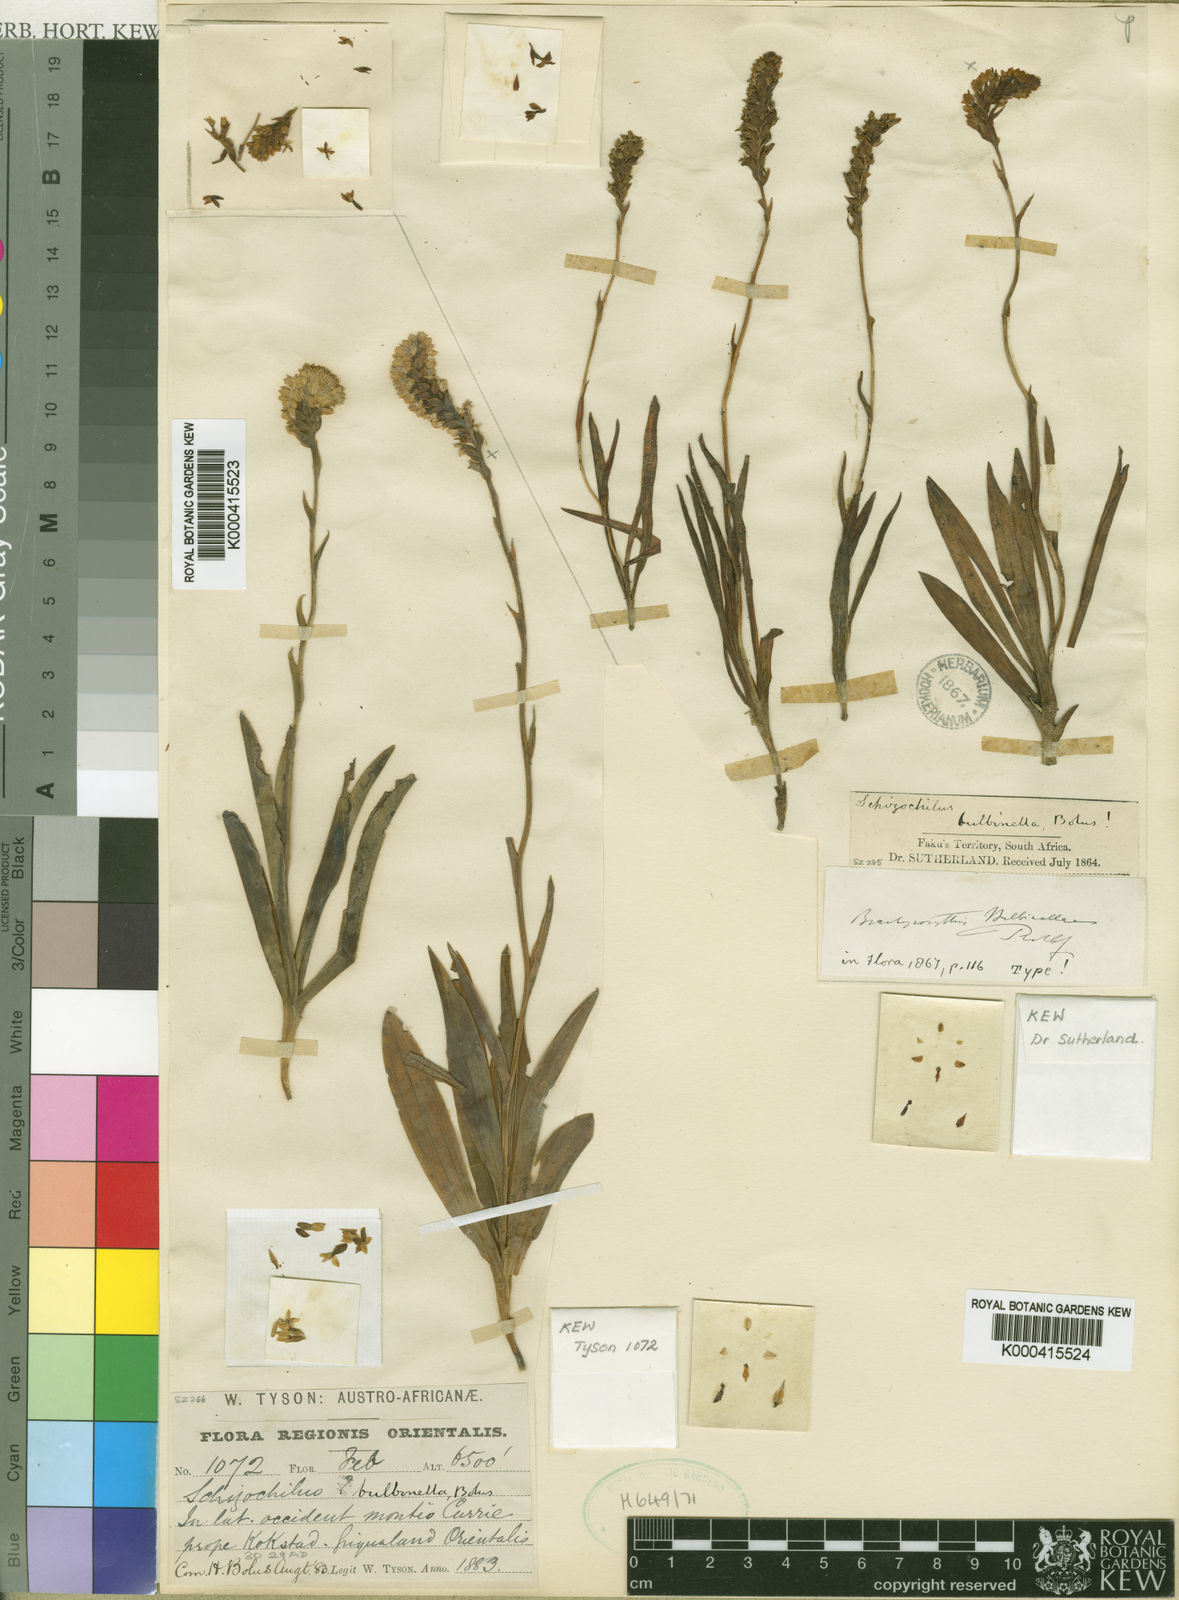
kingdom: Plantae
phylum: Tracheophyta
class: Liliopsida
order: Asparagales
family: Orchidaceae
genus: Schizochilus
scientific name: Schizochilus bulbinella
